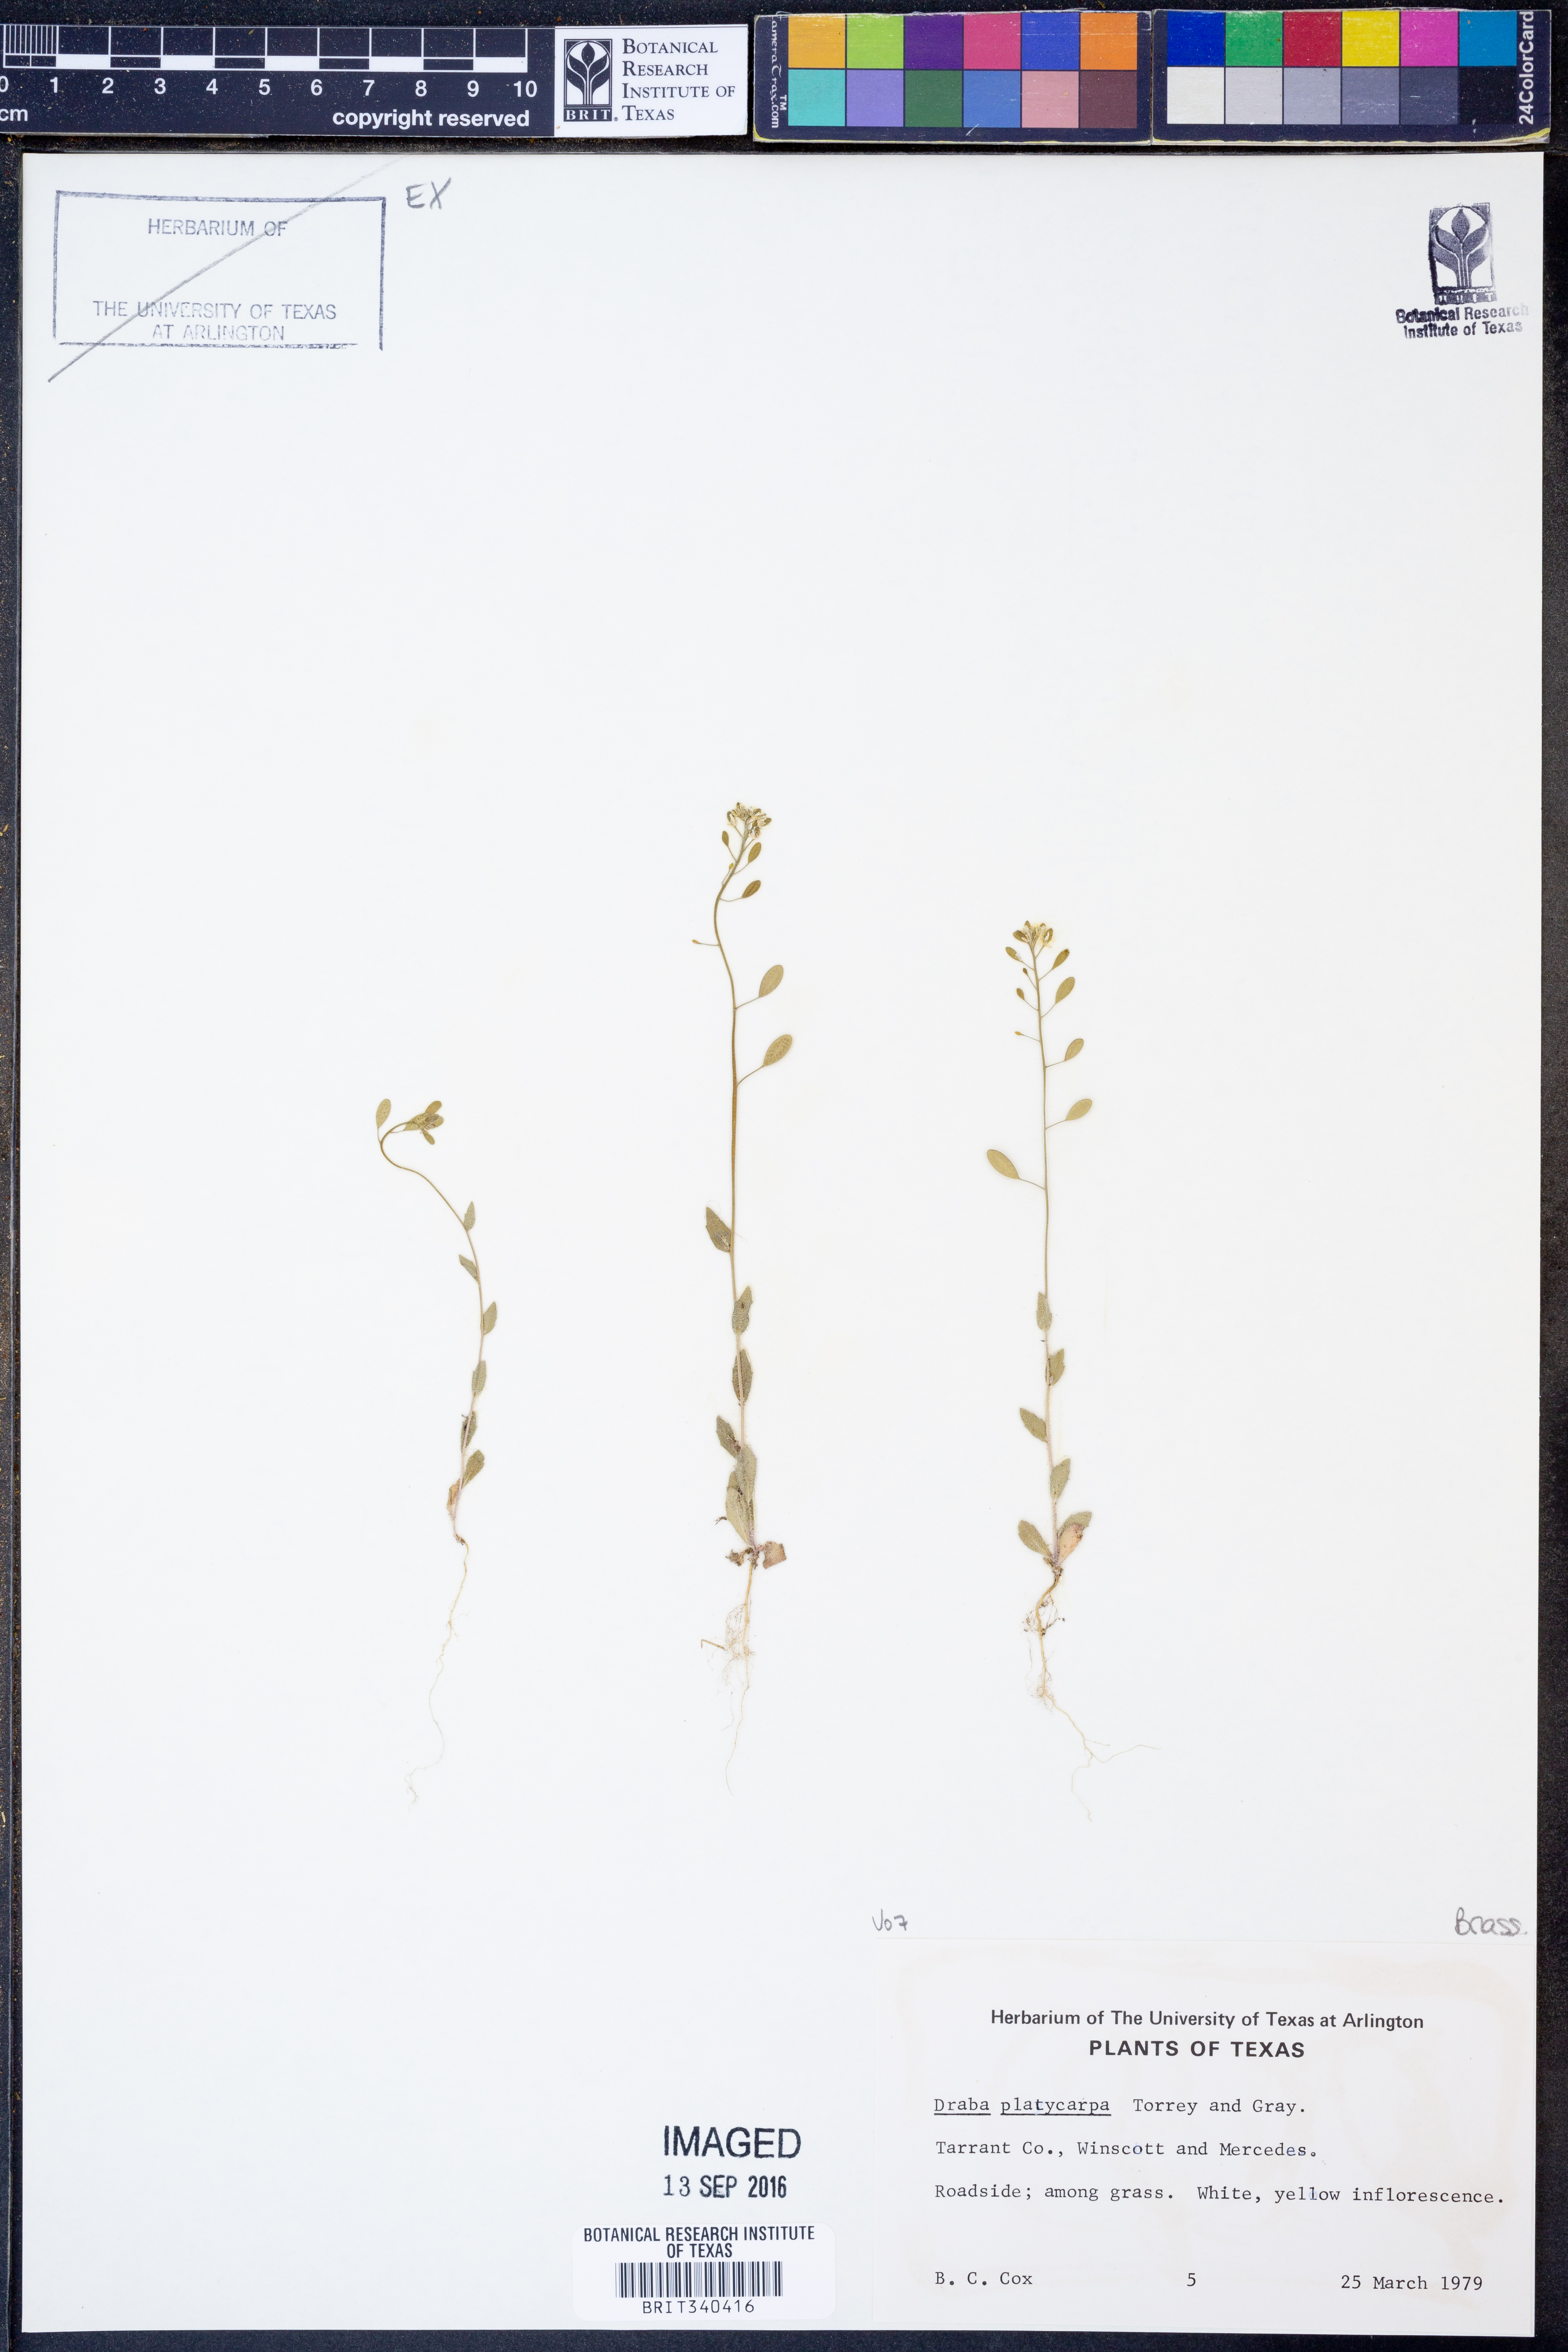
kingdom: Plantae
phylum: Tracheophyta
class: Magnoliopsida
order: Brassicales
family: Brassicaceae
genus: Tomostima
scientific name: Tomostima platycarpa
